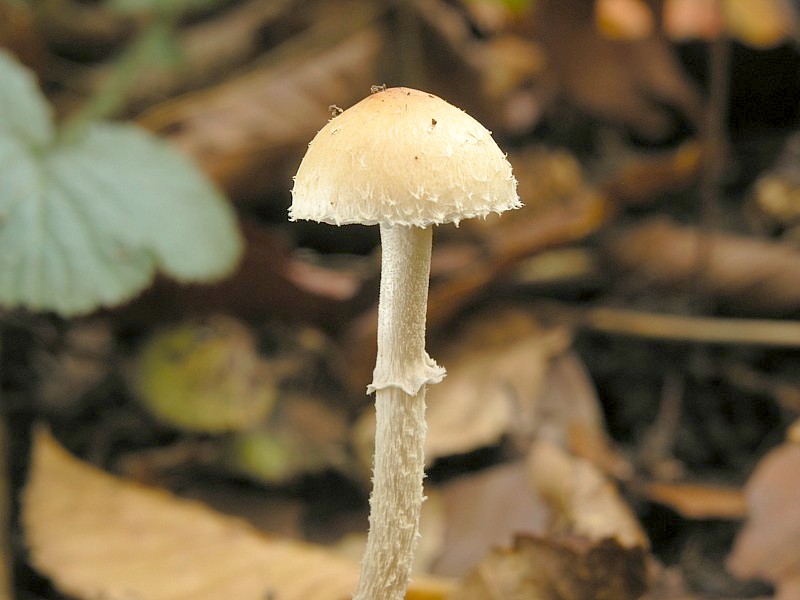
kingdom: Fungi
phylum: Basidiomycota
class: Agaricomycetes
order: Agaricales
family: Strophariaceae
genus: Leratiomyces
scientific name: Leratiomyces squamosus
